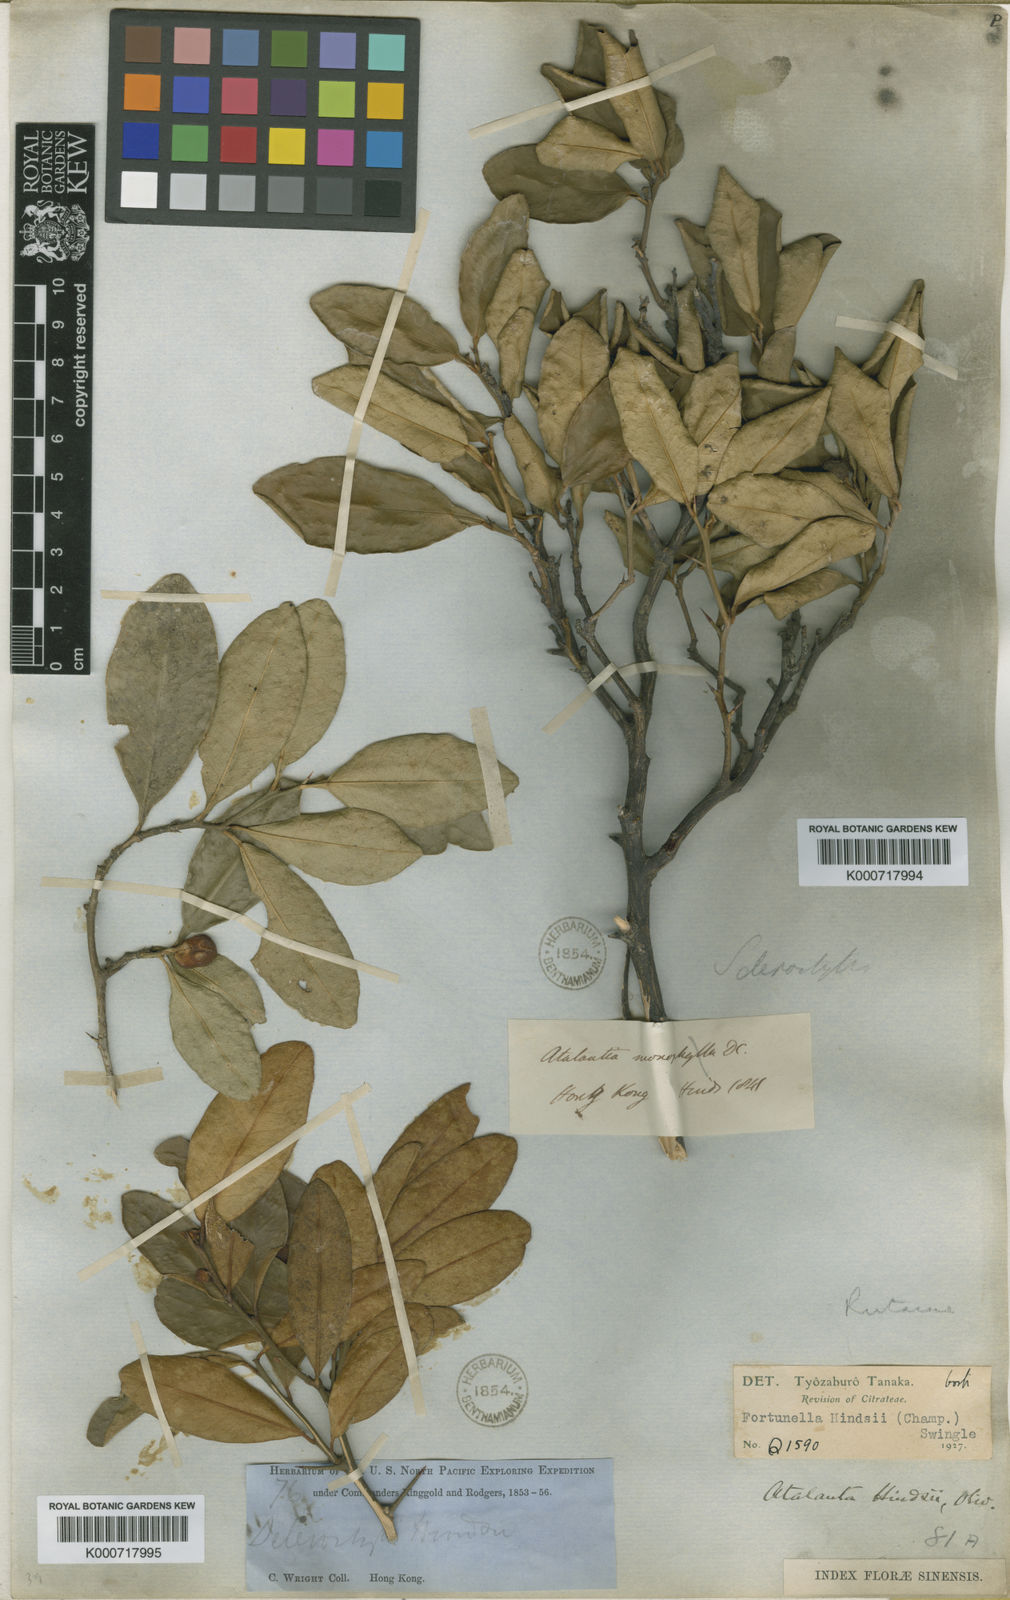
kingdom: Plantae
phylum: Tracheophyta
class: Magnoliopsida
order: Sapindales
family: Rutaceae
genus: Citrus
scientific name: Citrus japonica
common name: Kumquat
